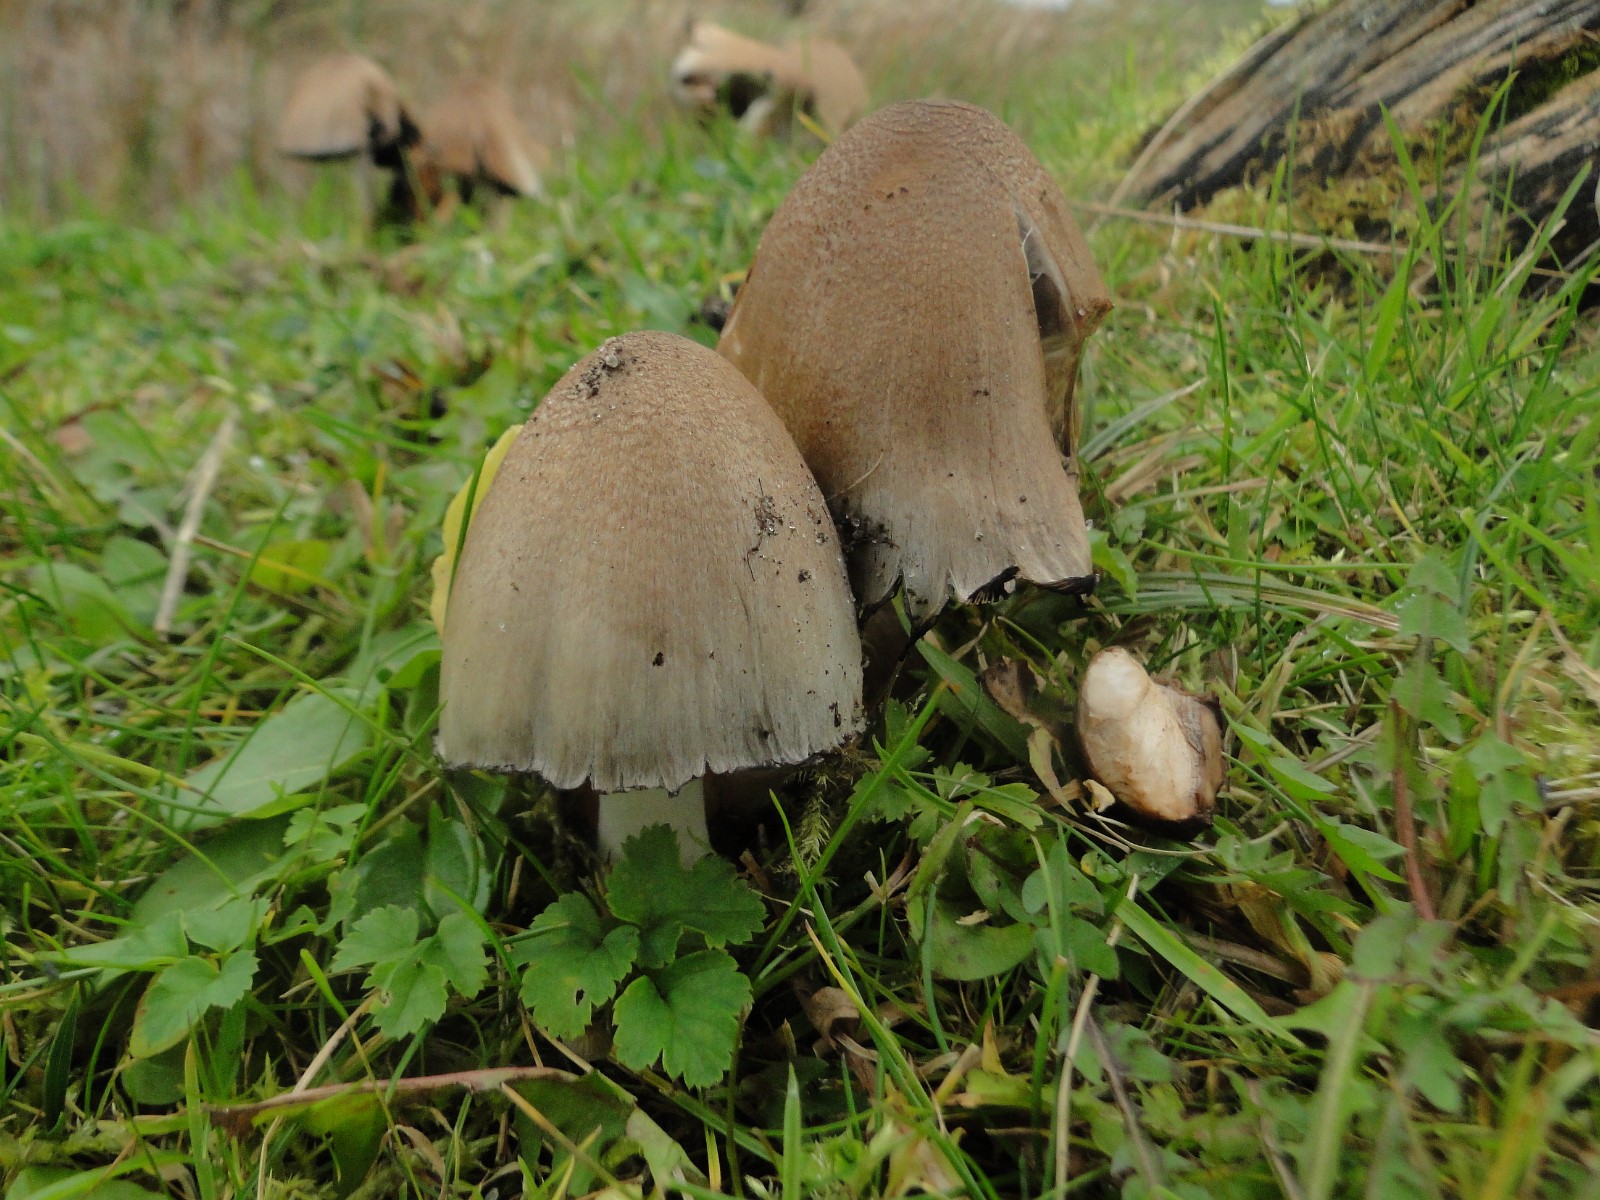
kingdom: Fungi
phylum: Basidiomycota
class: Agaricomycetes
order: Agaricales
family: Psathyrellaceae
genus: Coprinopsis
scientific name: Coprinopsis atramentaria
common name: almindelig blækhat
